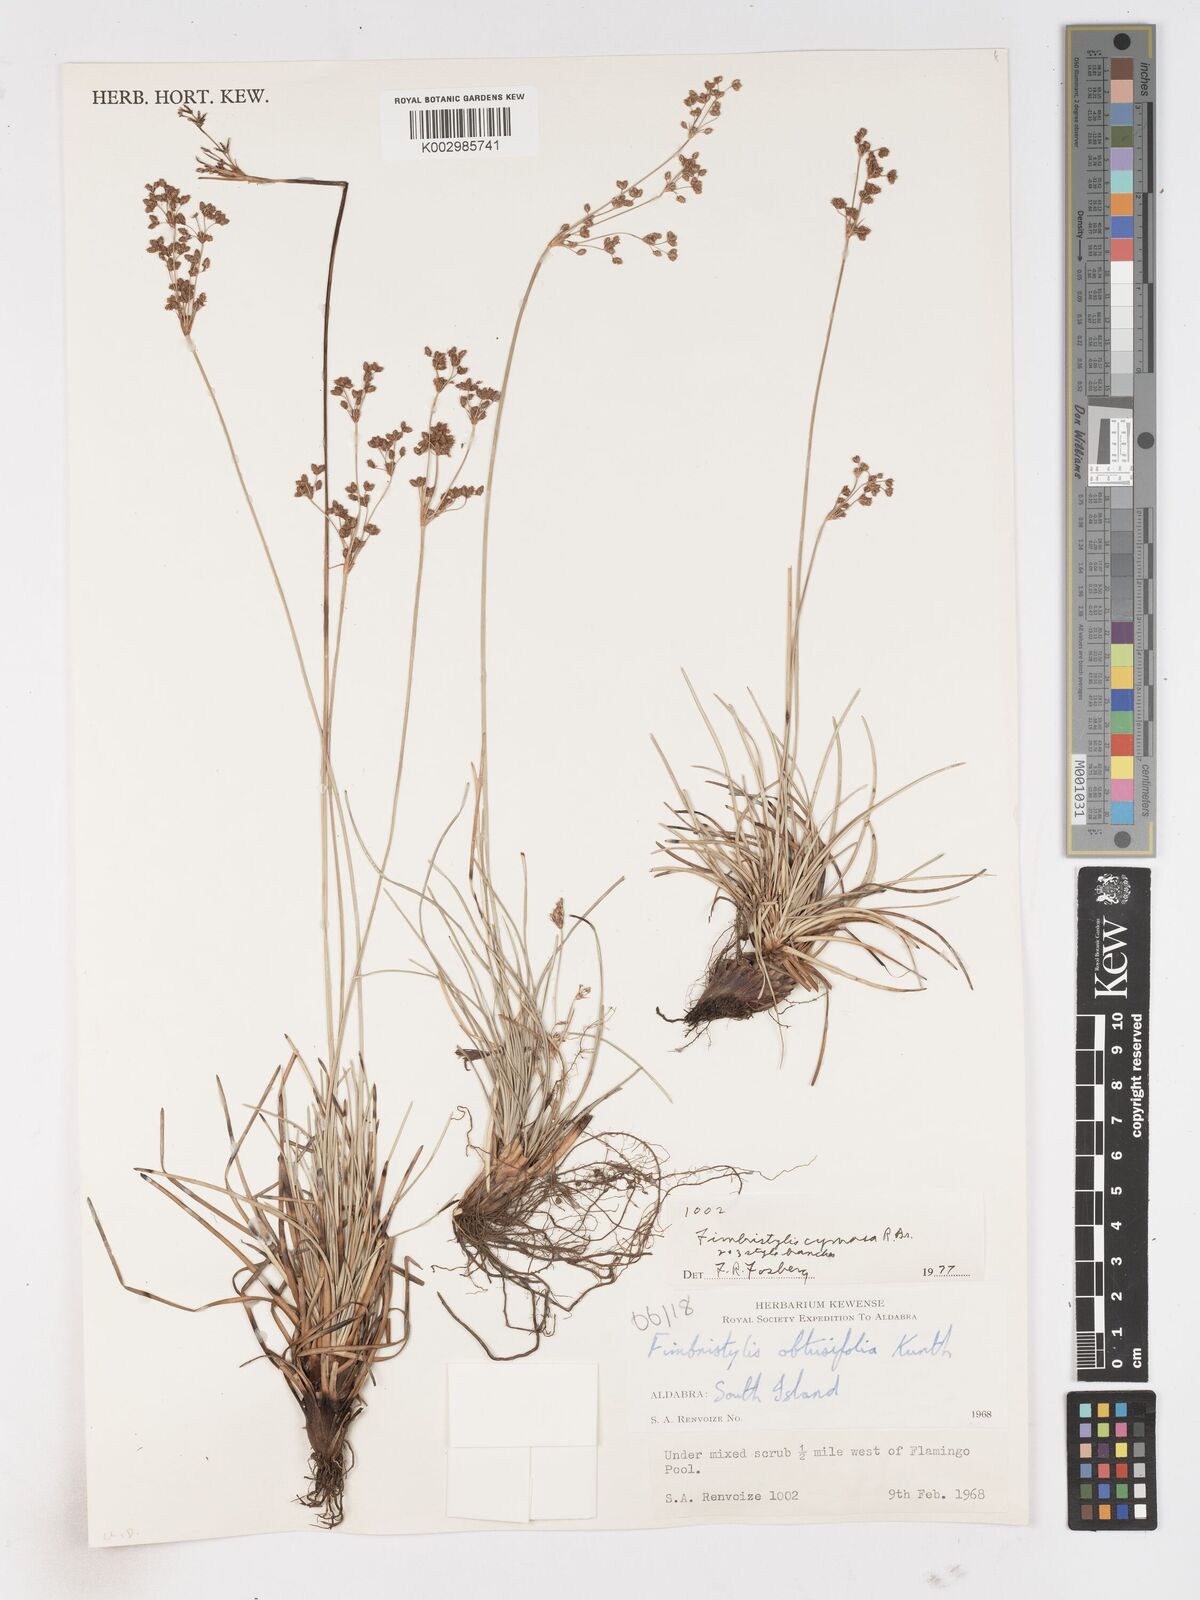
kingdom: Plantae
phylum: Tracheophyta
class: Liliopsida
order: Poales
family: Cyperaceae
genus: Fimbristylis
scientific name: Fimbristylis cymosa
